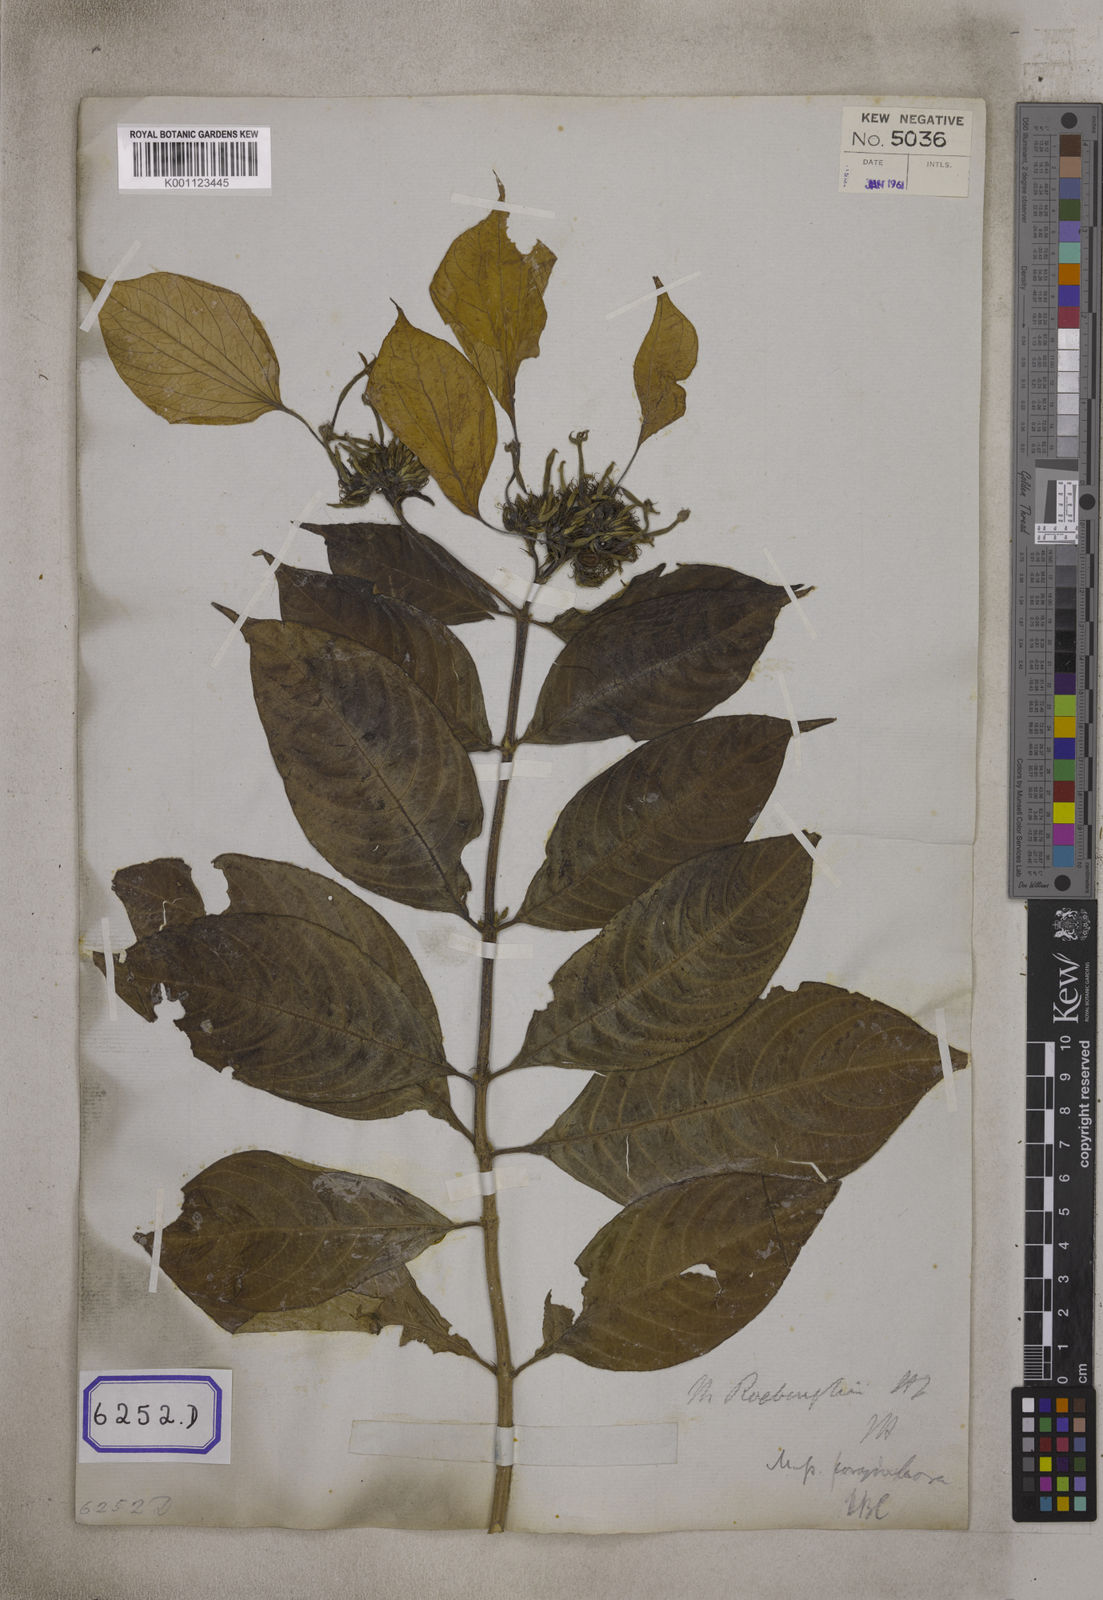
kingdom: Plantae
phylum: Tracheophyta
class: Magnoliopsida
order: Gentianales
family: Rubiaceae
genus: Mussaenda
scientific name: Mussaenda
